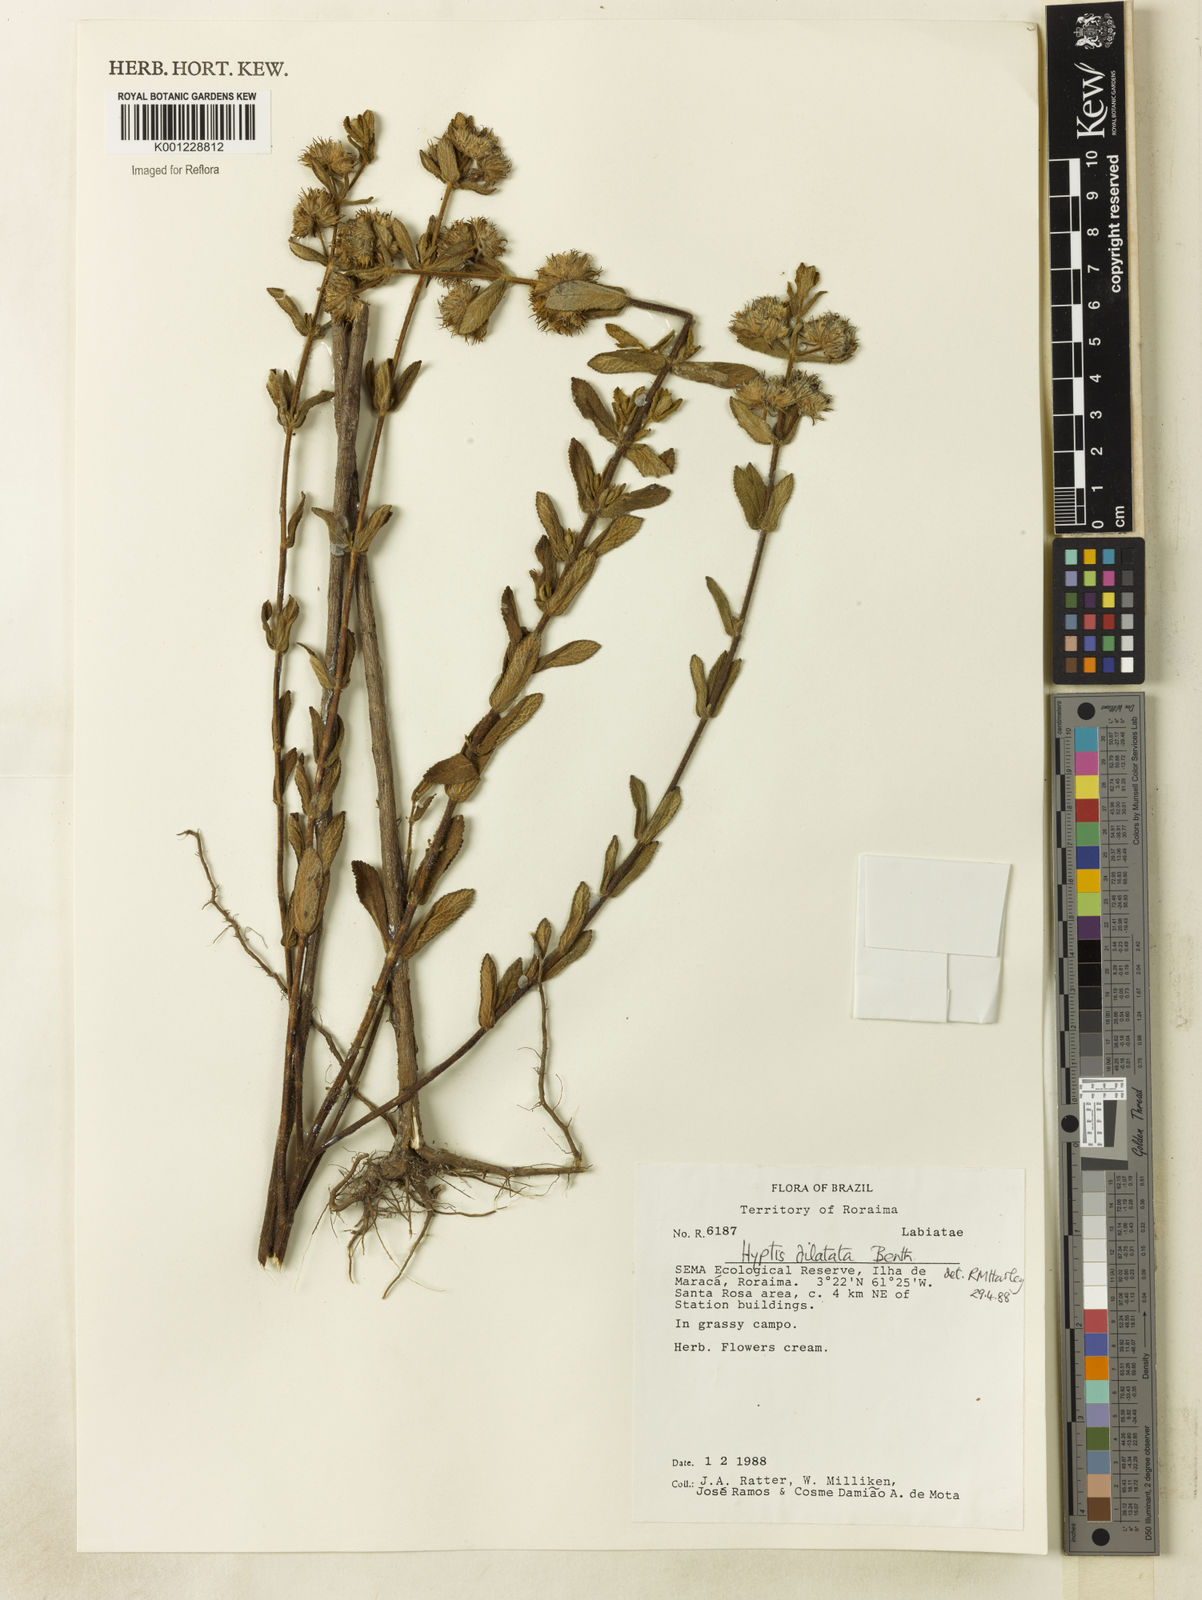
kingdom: Plantae
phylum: Tracheophyta
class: Magnoliopsida
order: Lamiales
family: Lamiaceae
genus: Hyptis
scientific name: Hyptis dilatata
